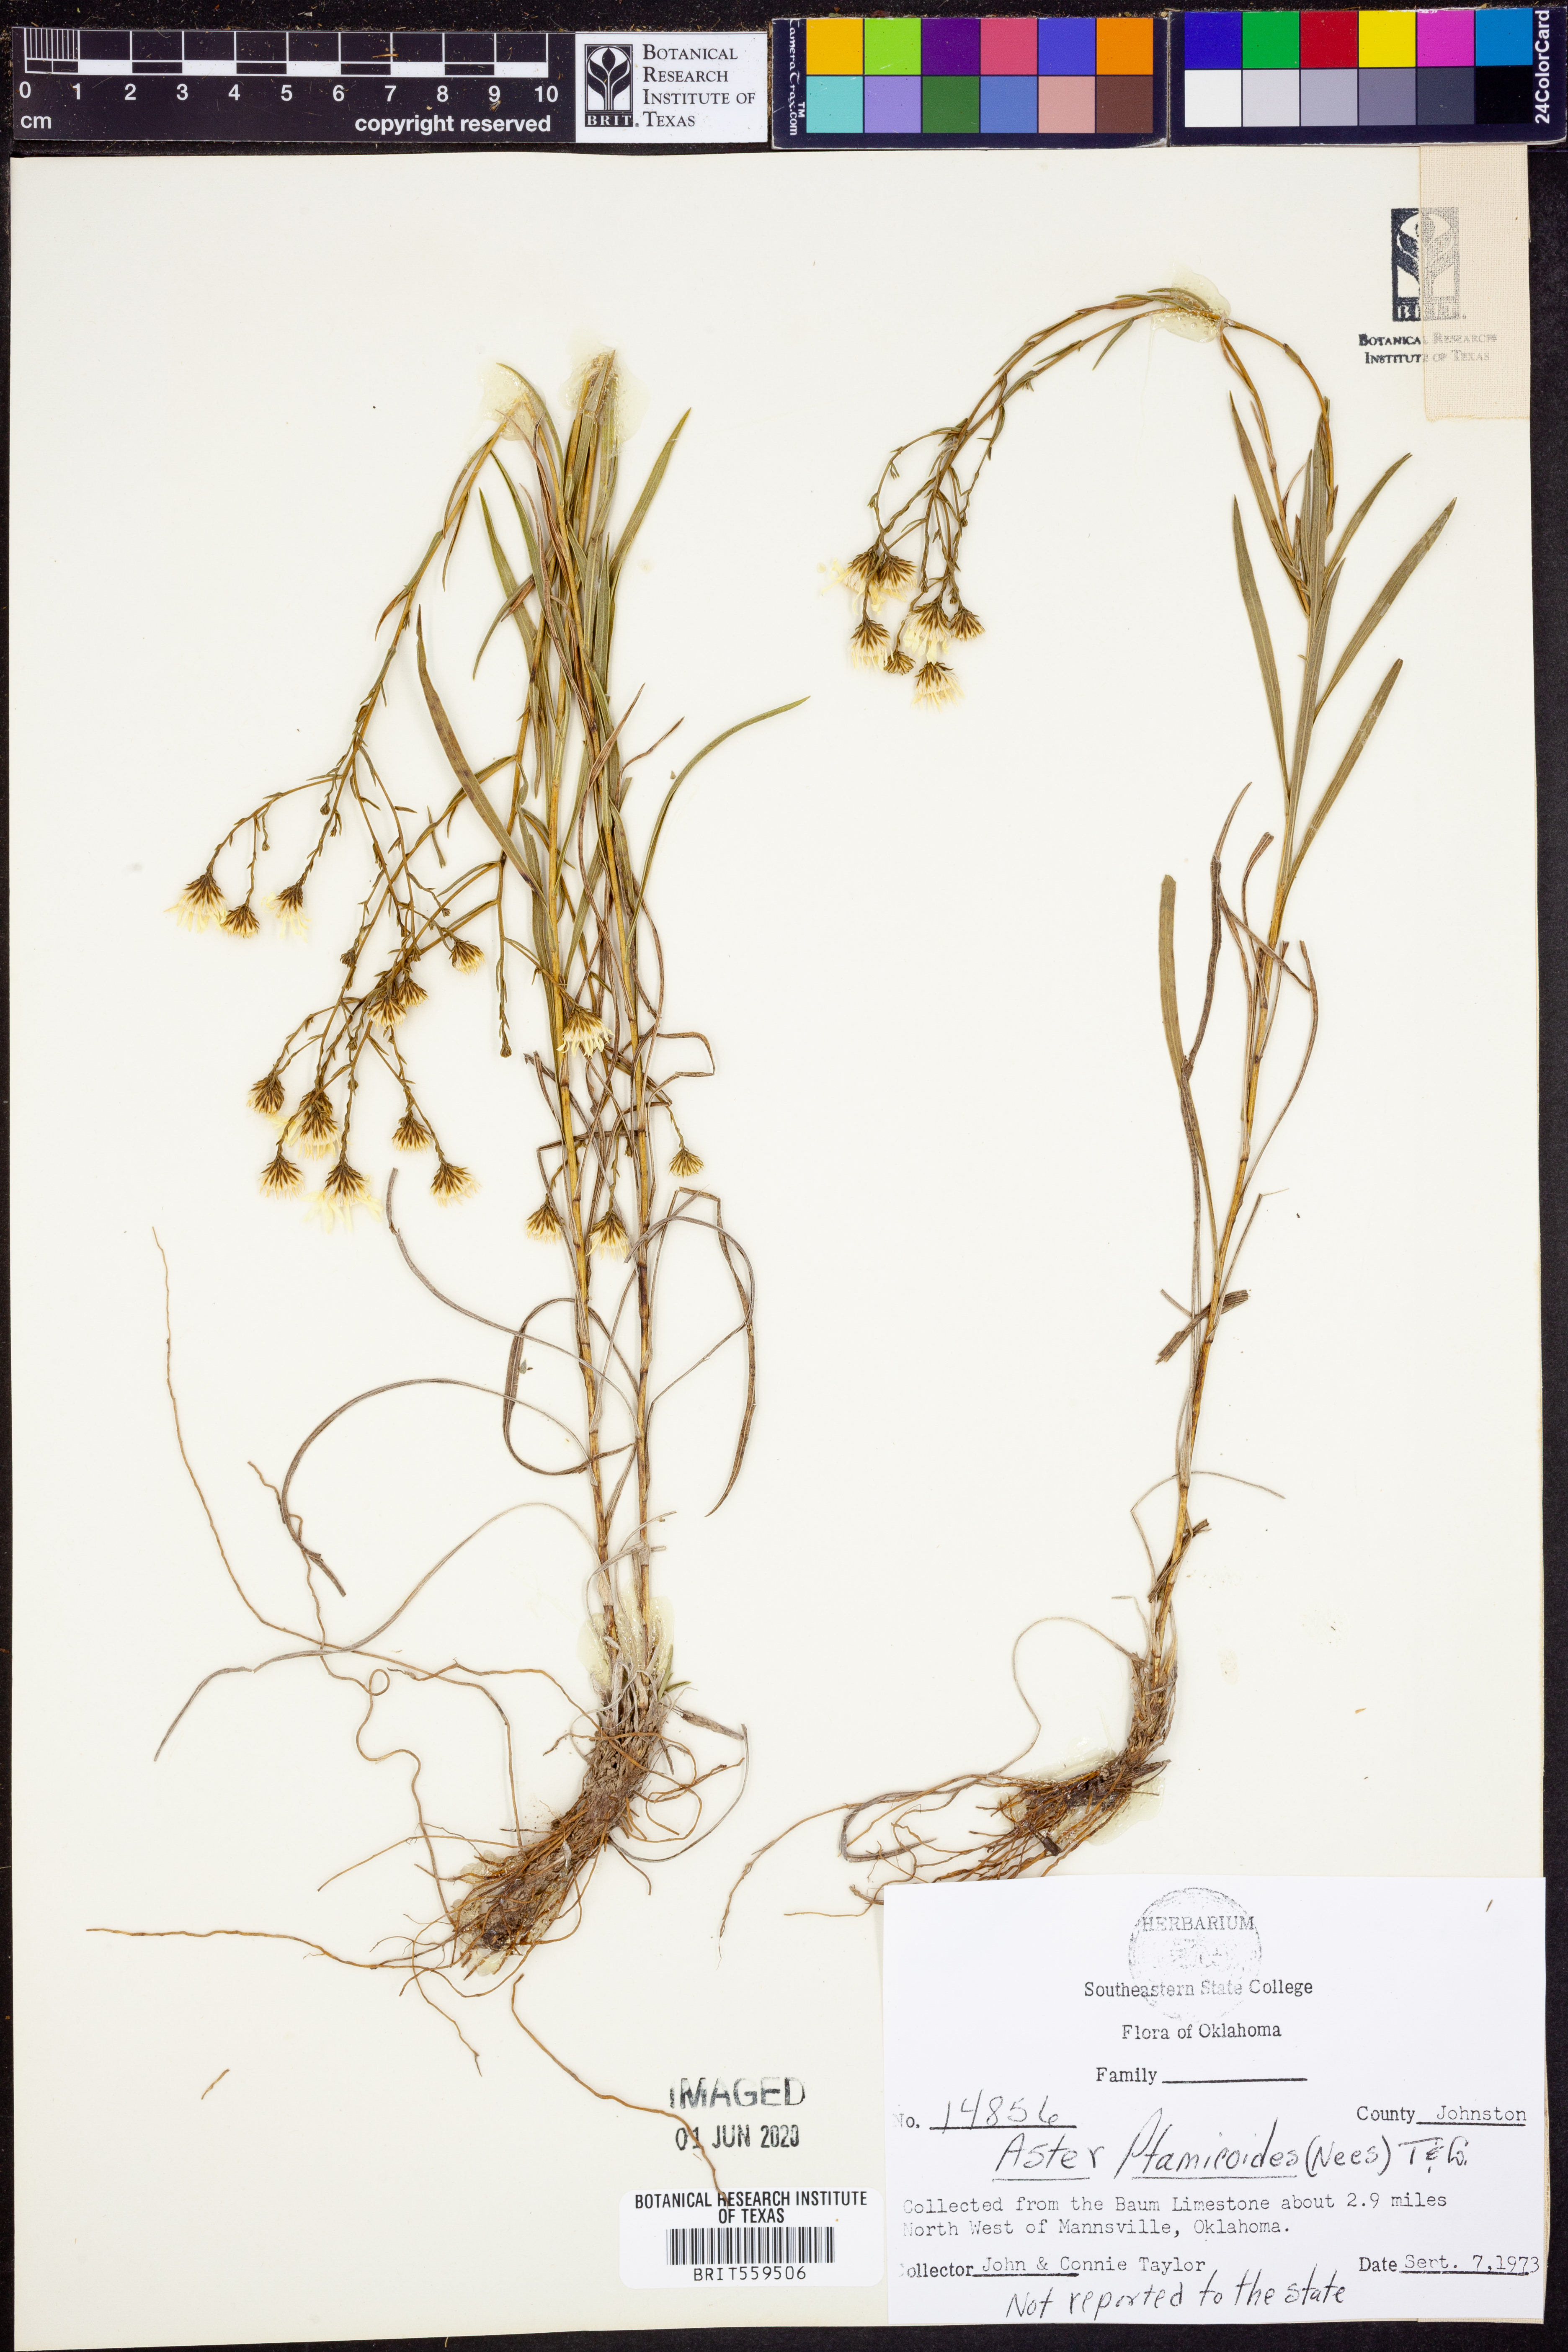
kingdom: Plantae
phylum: Tracheophyta
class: Magnoliopsida
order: Asterales
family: Asteraceae
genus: Solidago
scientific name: Solidago ptarmicoides
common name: White flat-top goldenrod
